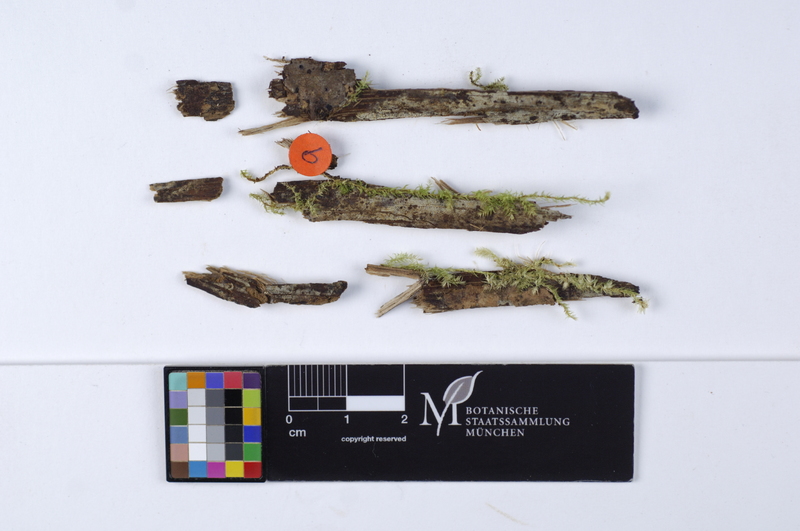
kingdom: Fungi
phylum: Basidiomycota
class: Agaricomycetes
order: Cantharellales
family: Botryobasidiaceae
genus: Botryobasidium
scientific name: Botryobasidium conspersum
